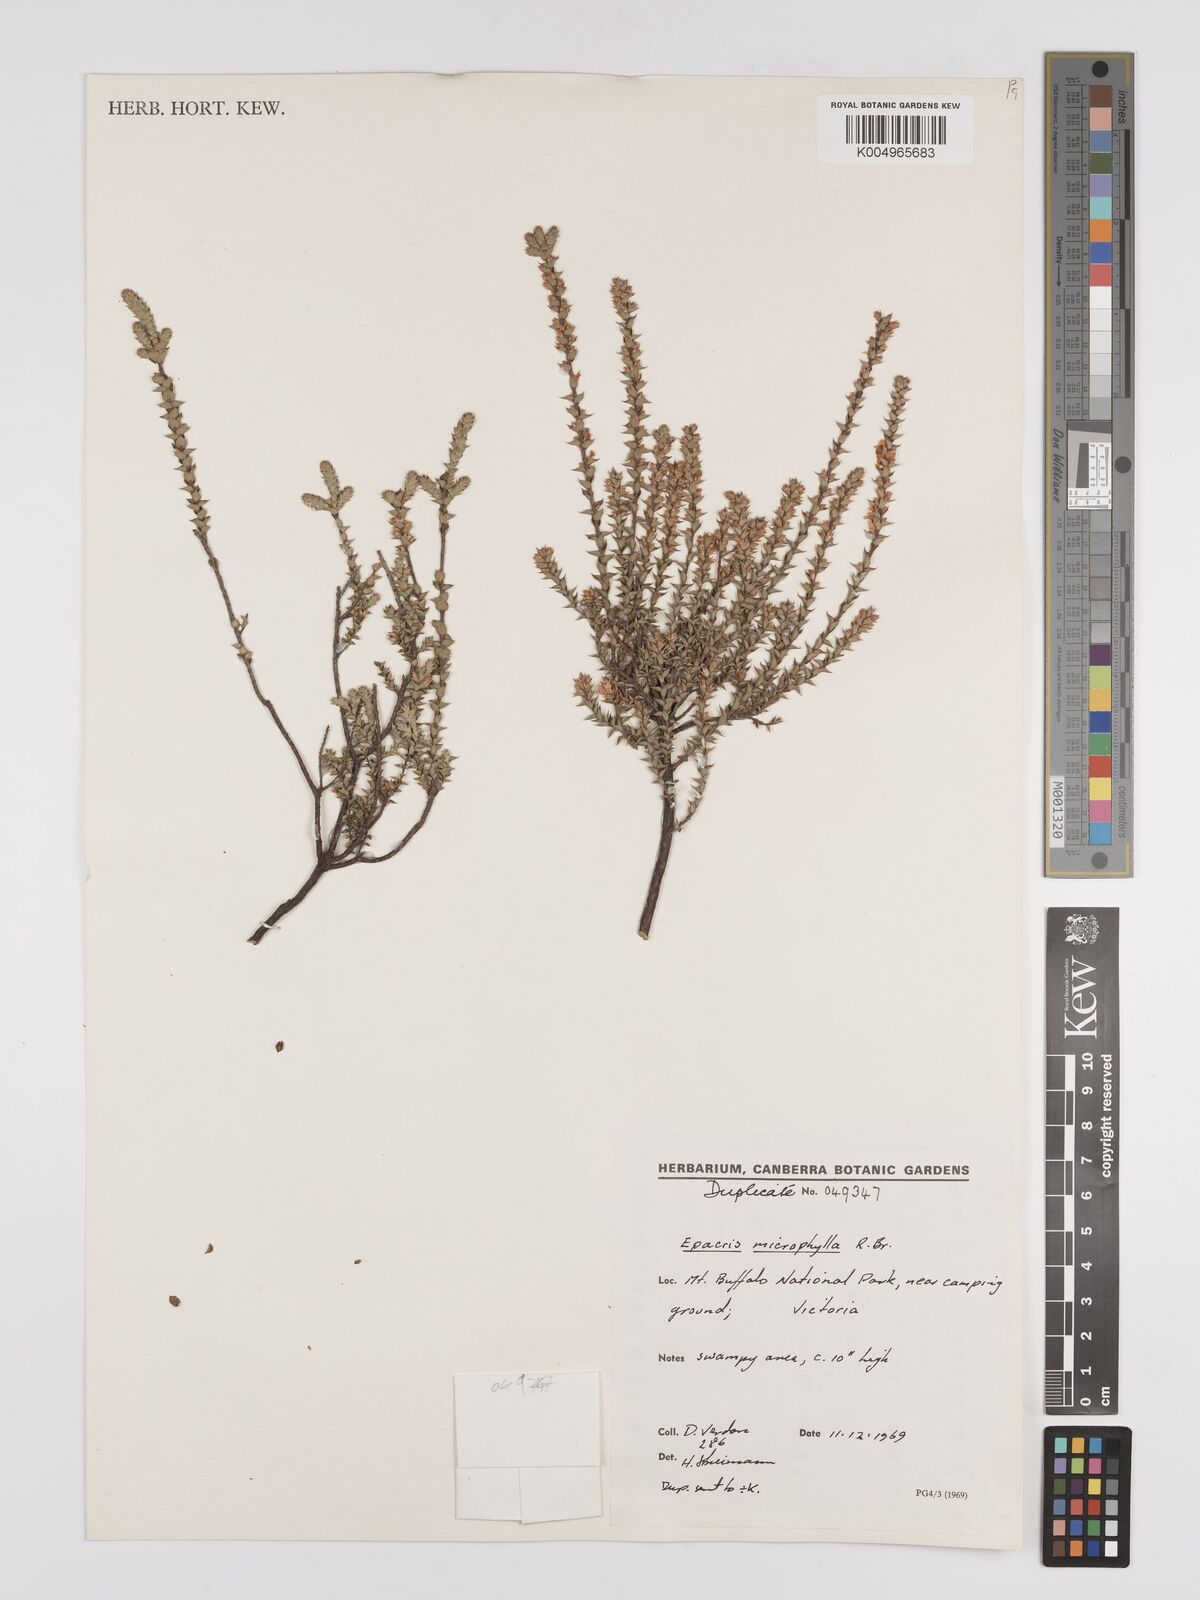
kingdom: Plantae
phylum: Tracheophyta
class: Magnoliopsida
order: Ericales
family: Ericaceae
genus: Epacris
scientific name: Epacris
